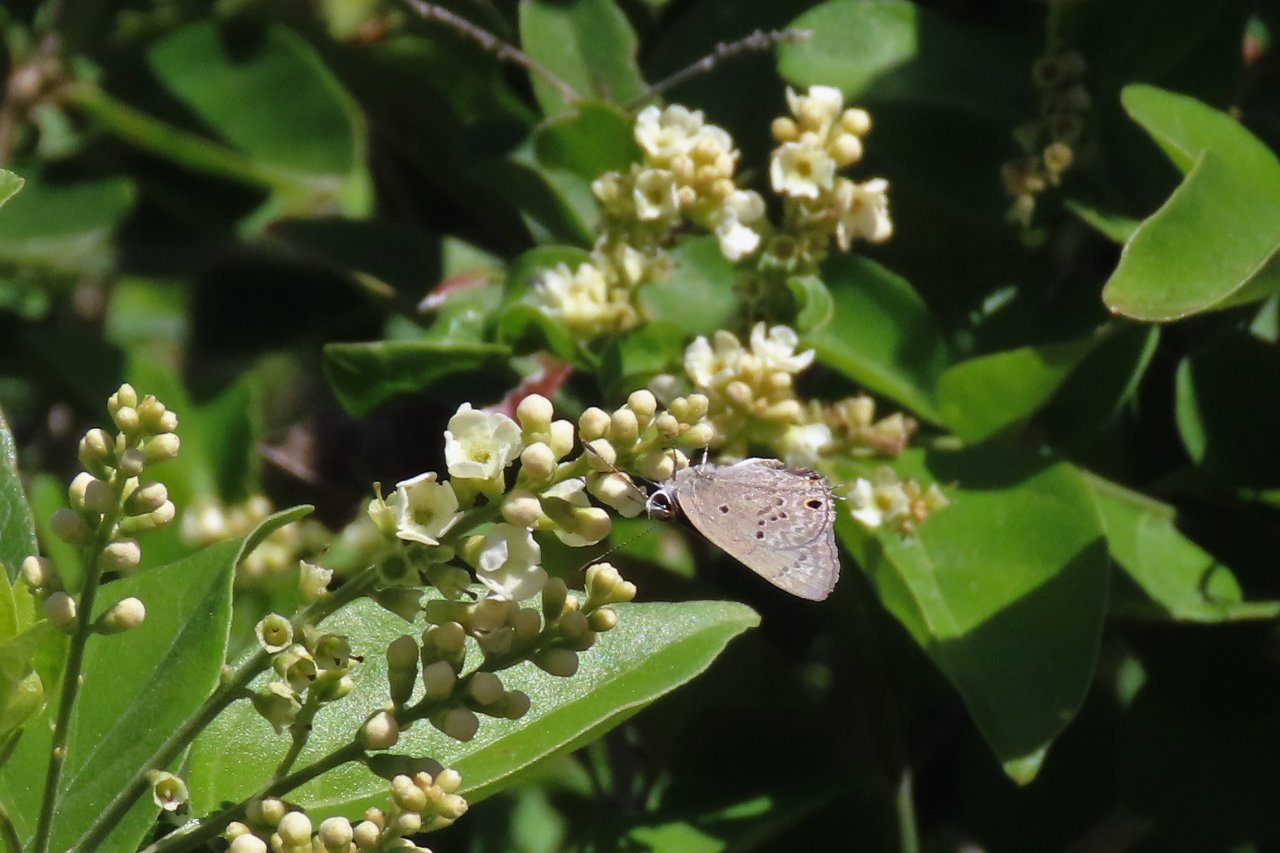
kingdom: Animalia
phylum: Arthropoda
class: Insecta
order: Lepidoptera
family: Lycaenidae
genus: Callicista
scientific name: Callicista columella
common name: Mallow Scrub-Hairstreak
